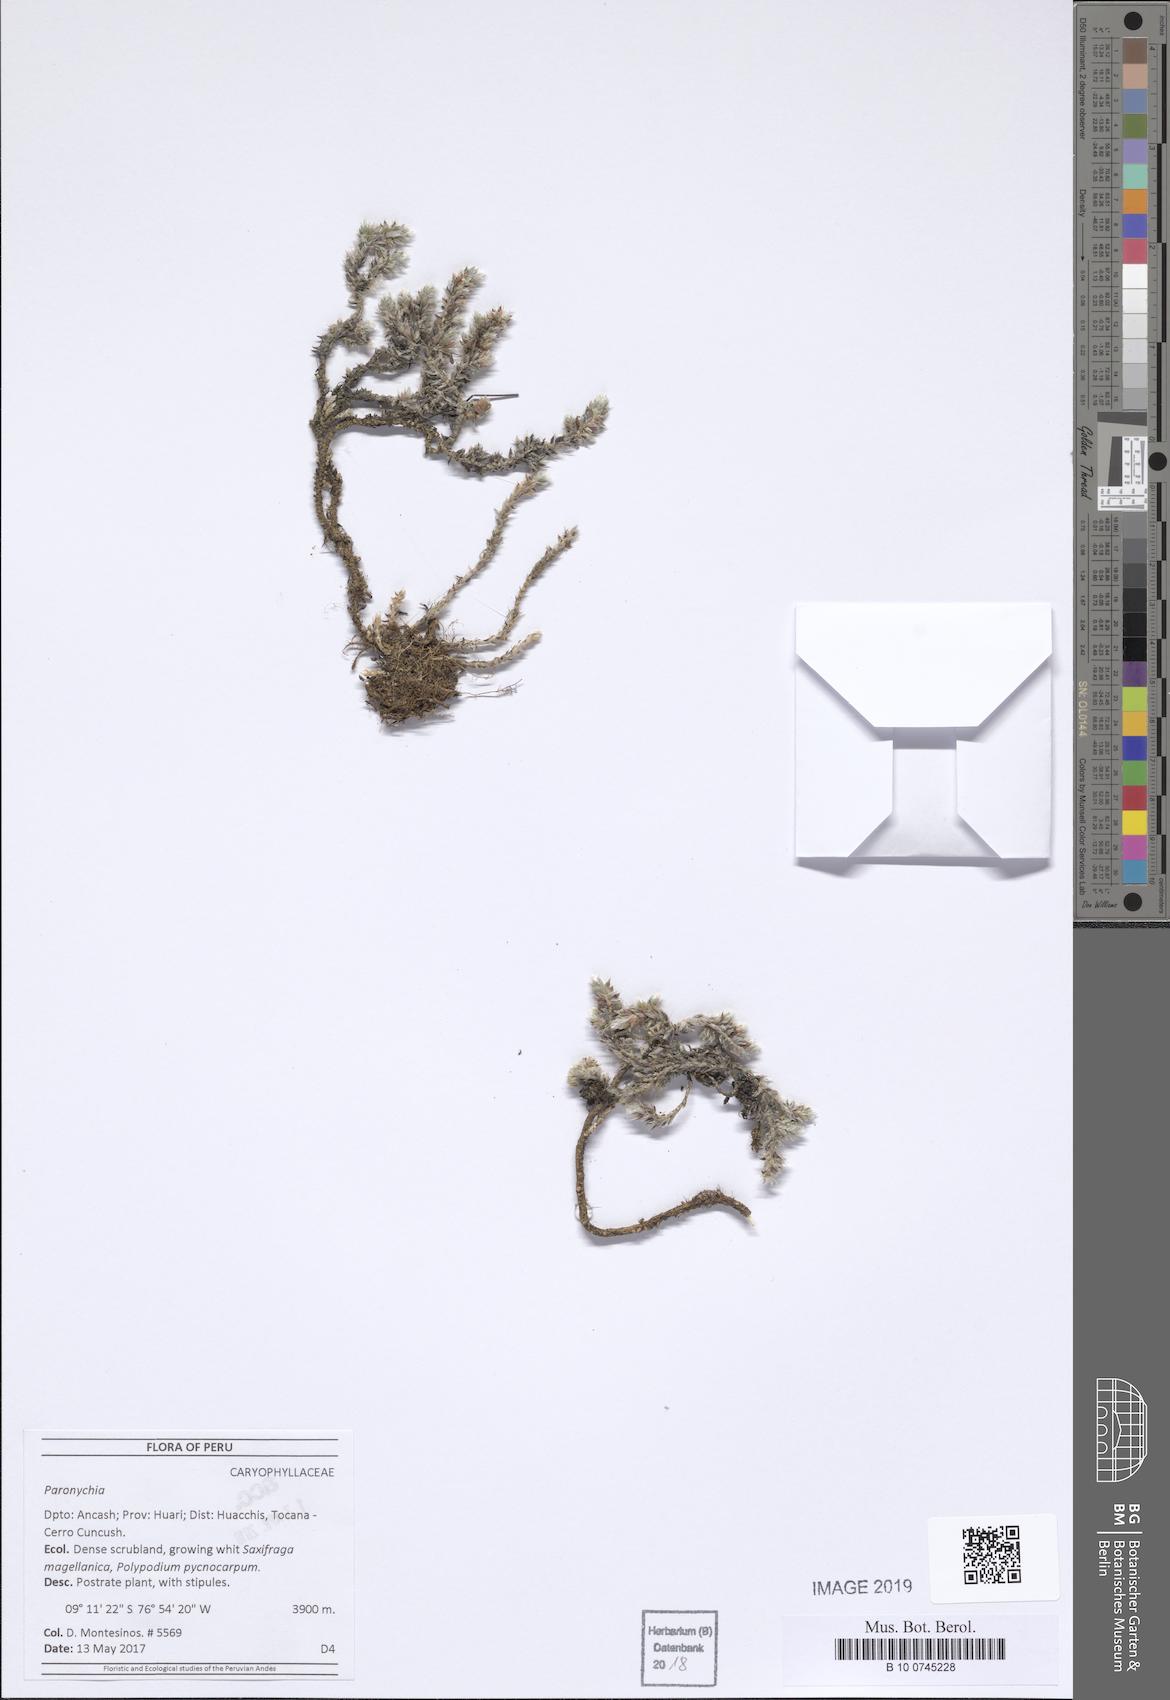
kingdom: Plantae
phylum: Tracheophyta
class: Magnoliopsida
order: Caryophyllales
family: Caryophyllaceae
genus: Paronychia
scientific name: Paronychia libertadiana
